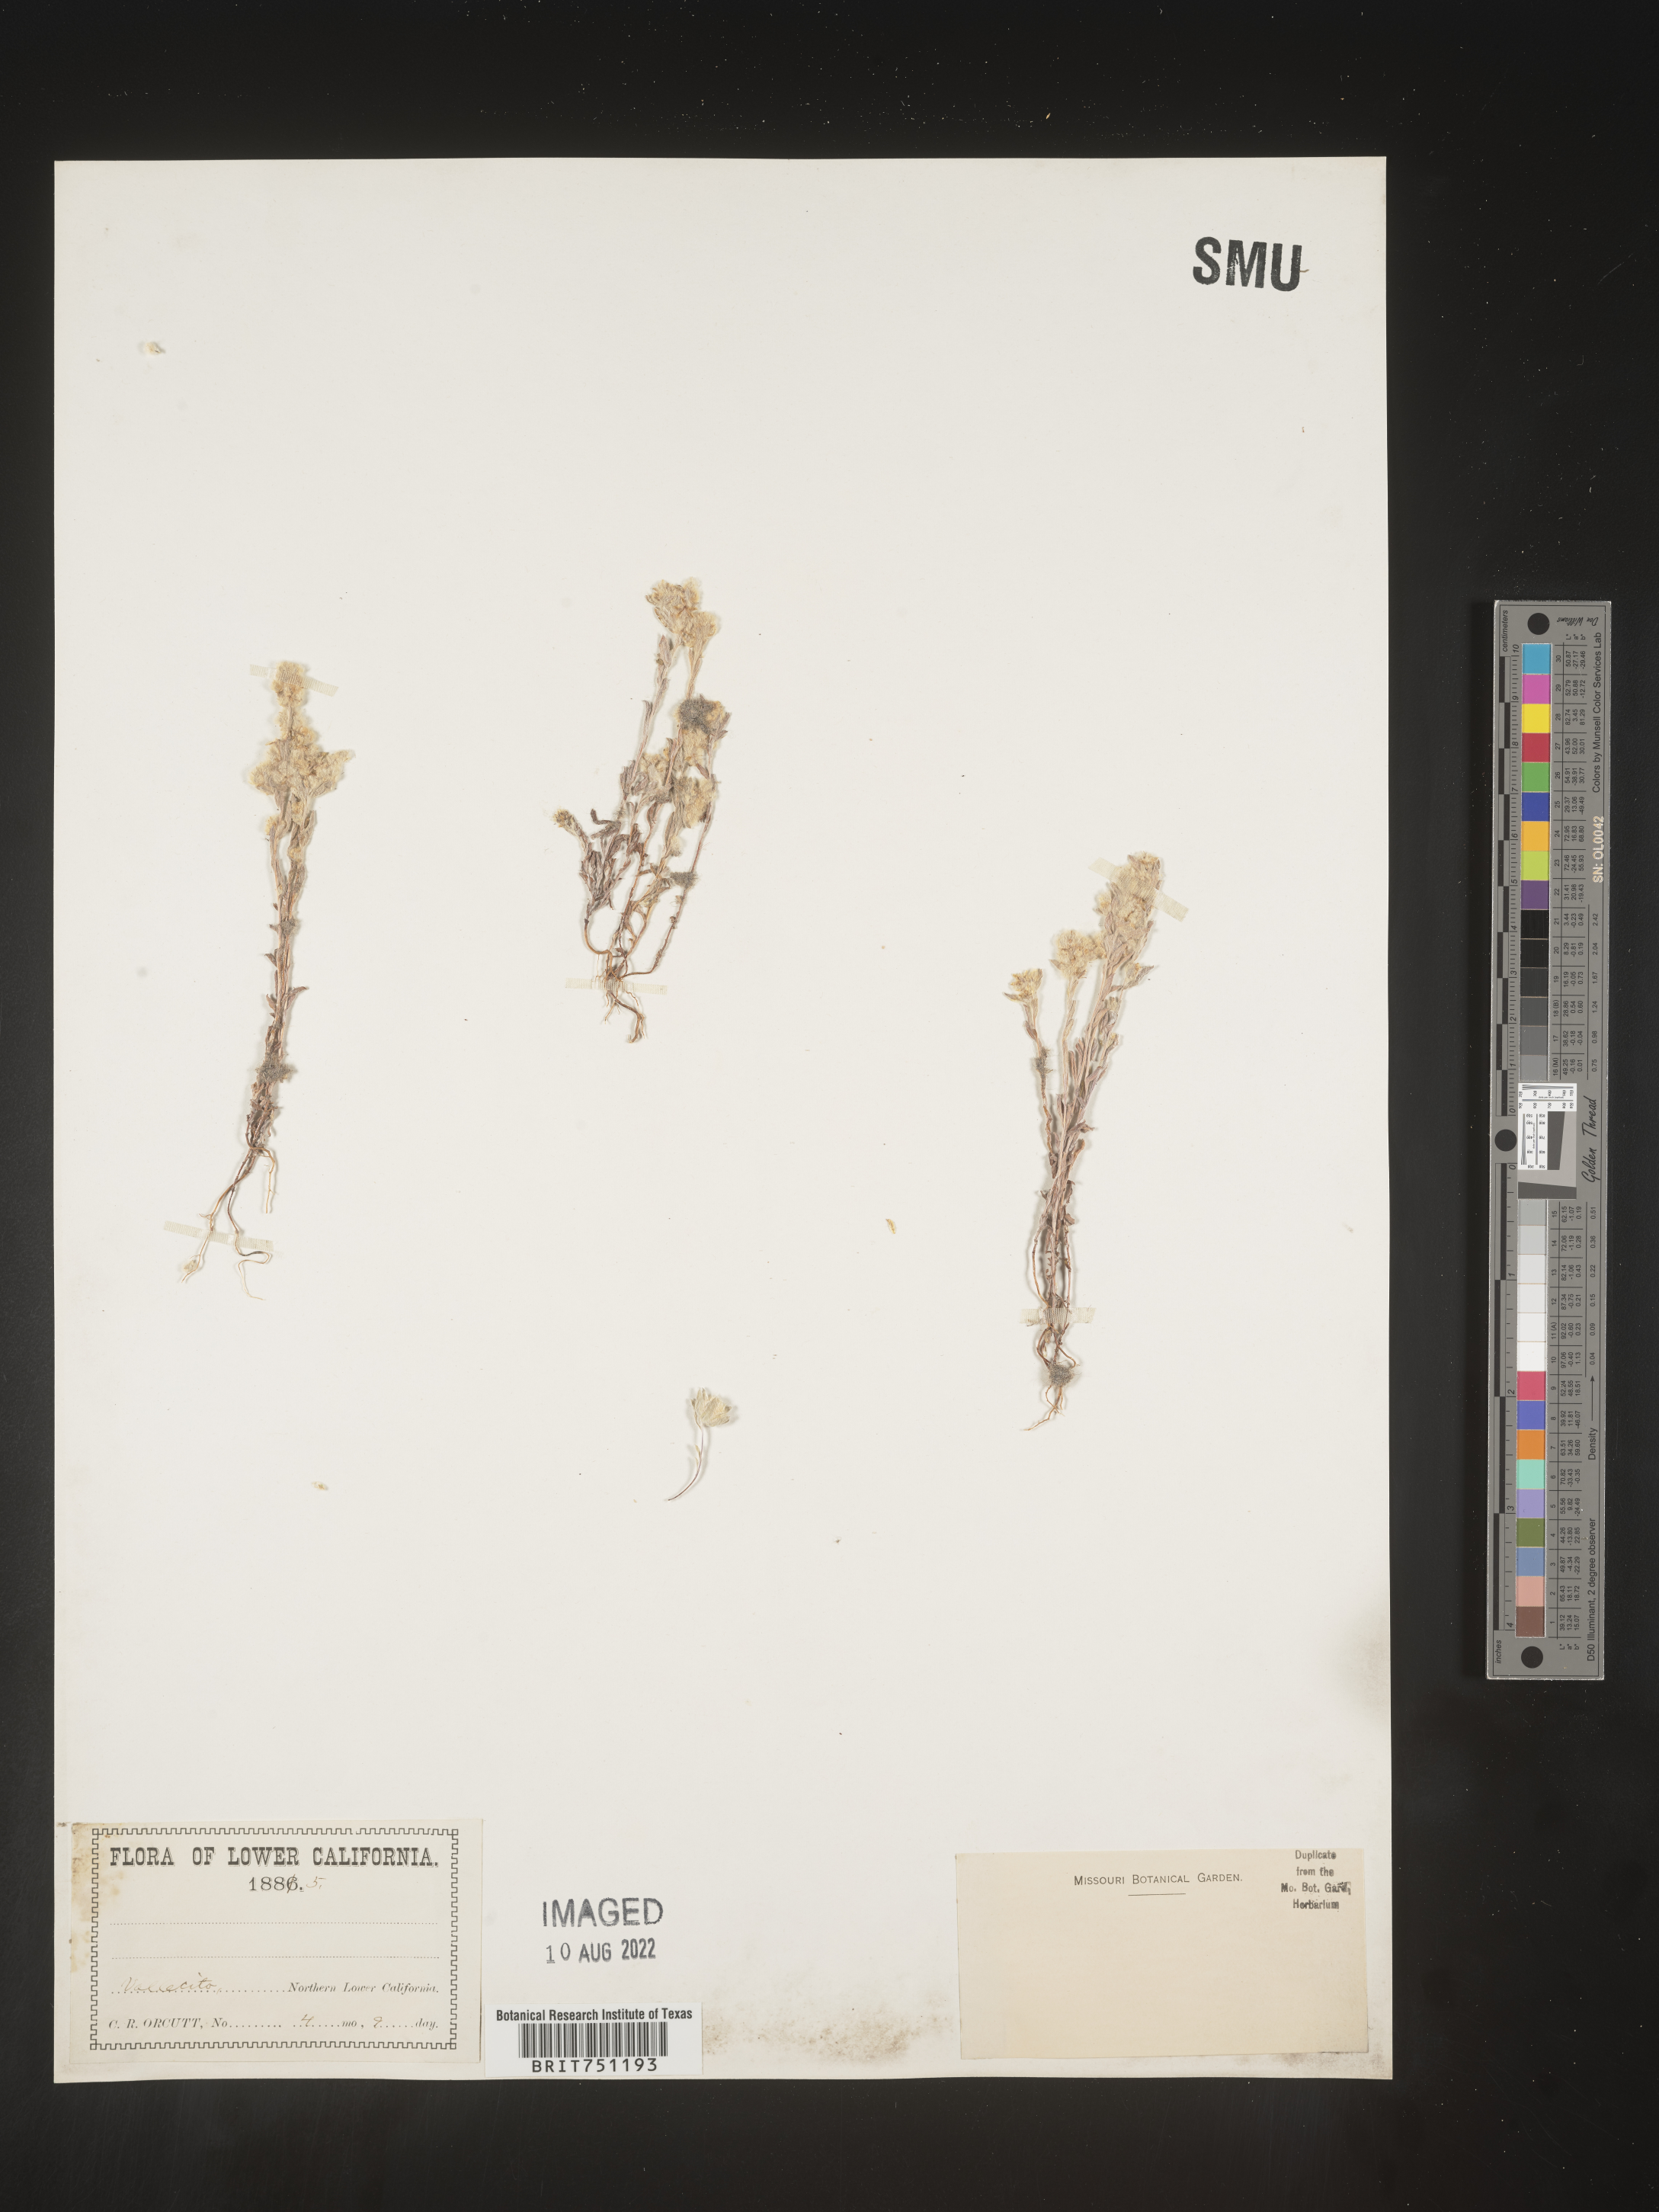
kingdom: Plantae
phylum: Tracheophyta
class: Magnoliopsida
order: Asterales
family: Asteraceae
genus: Stylocline
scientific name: Stylocline
